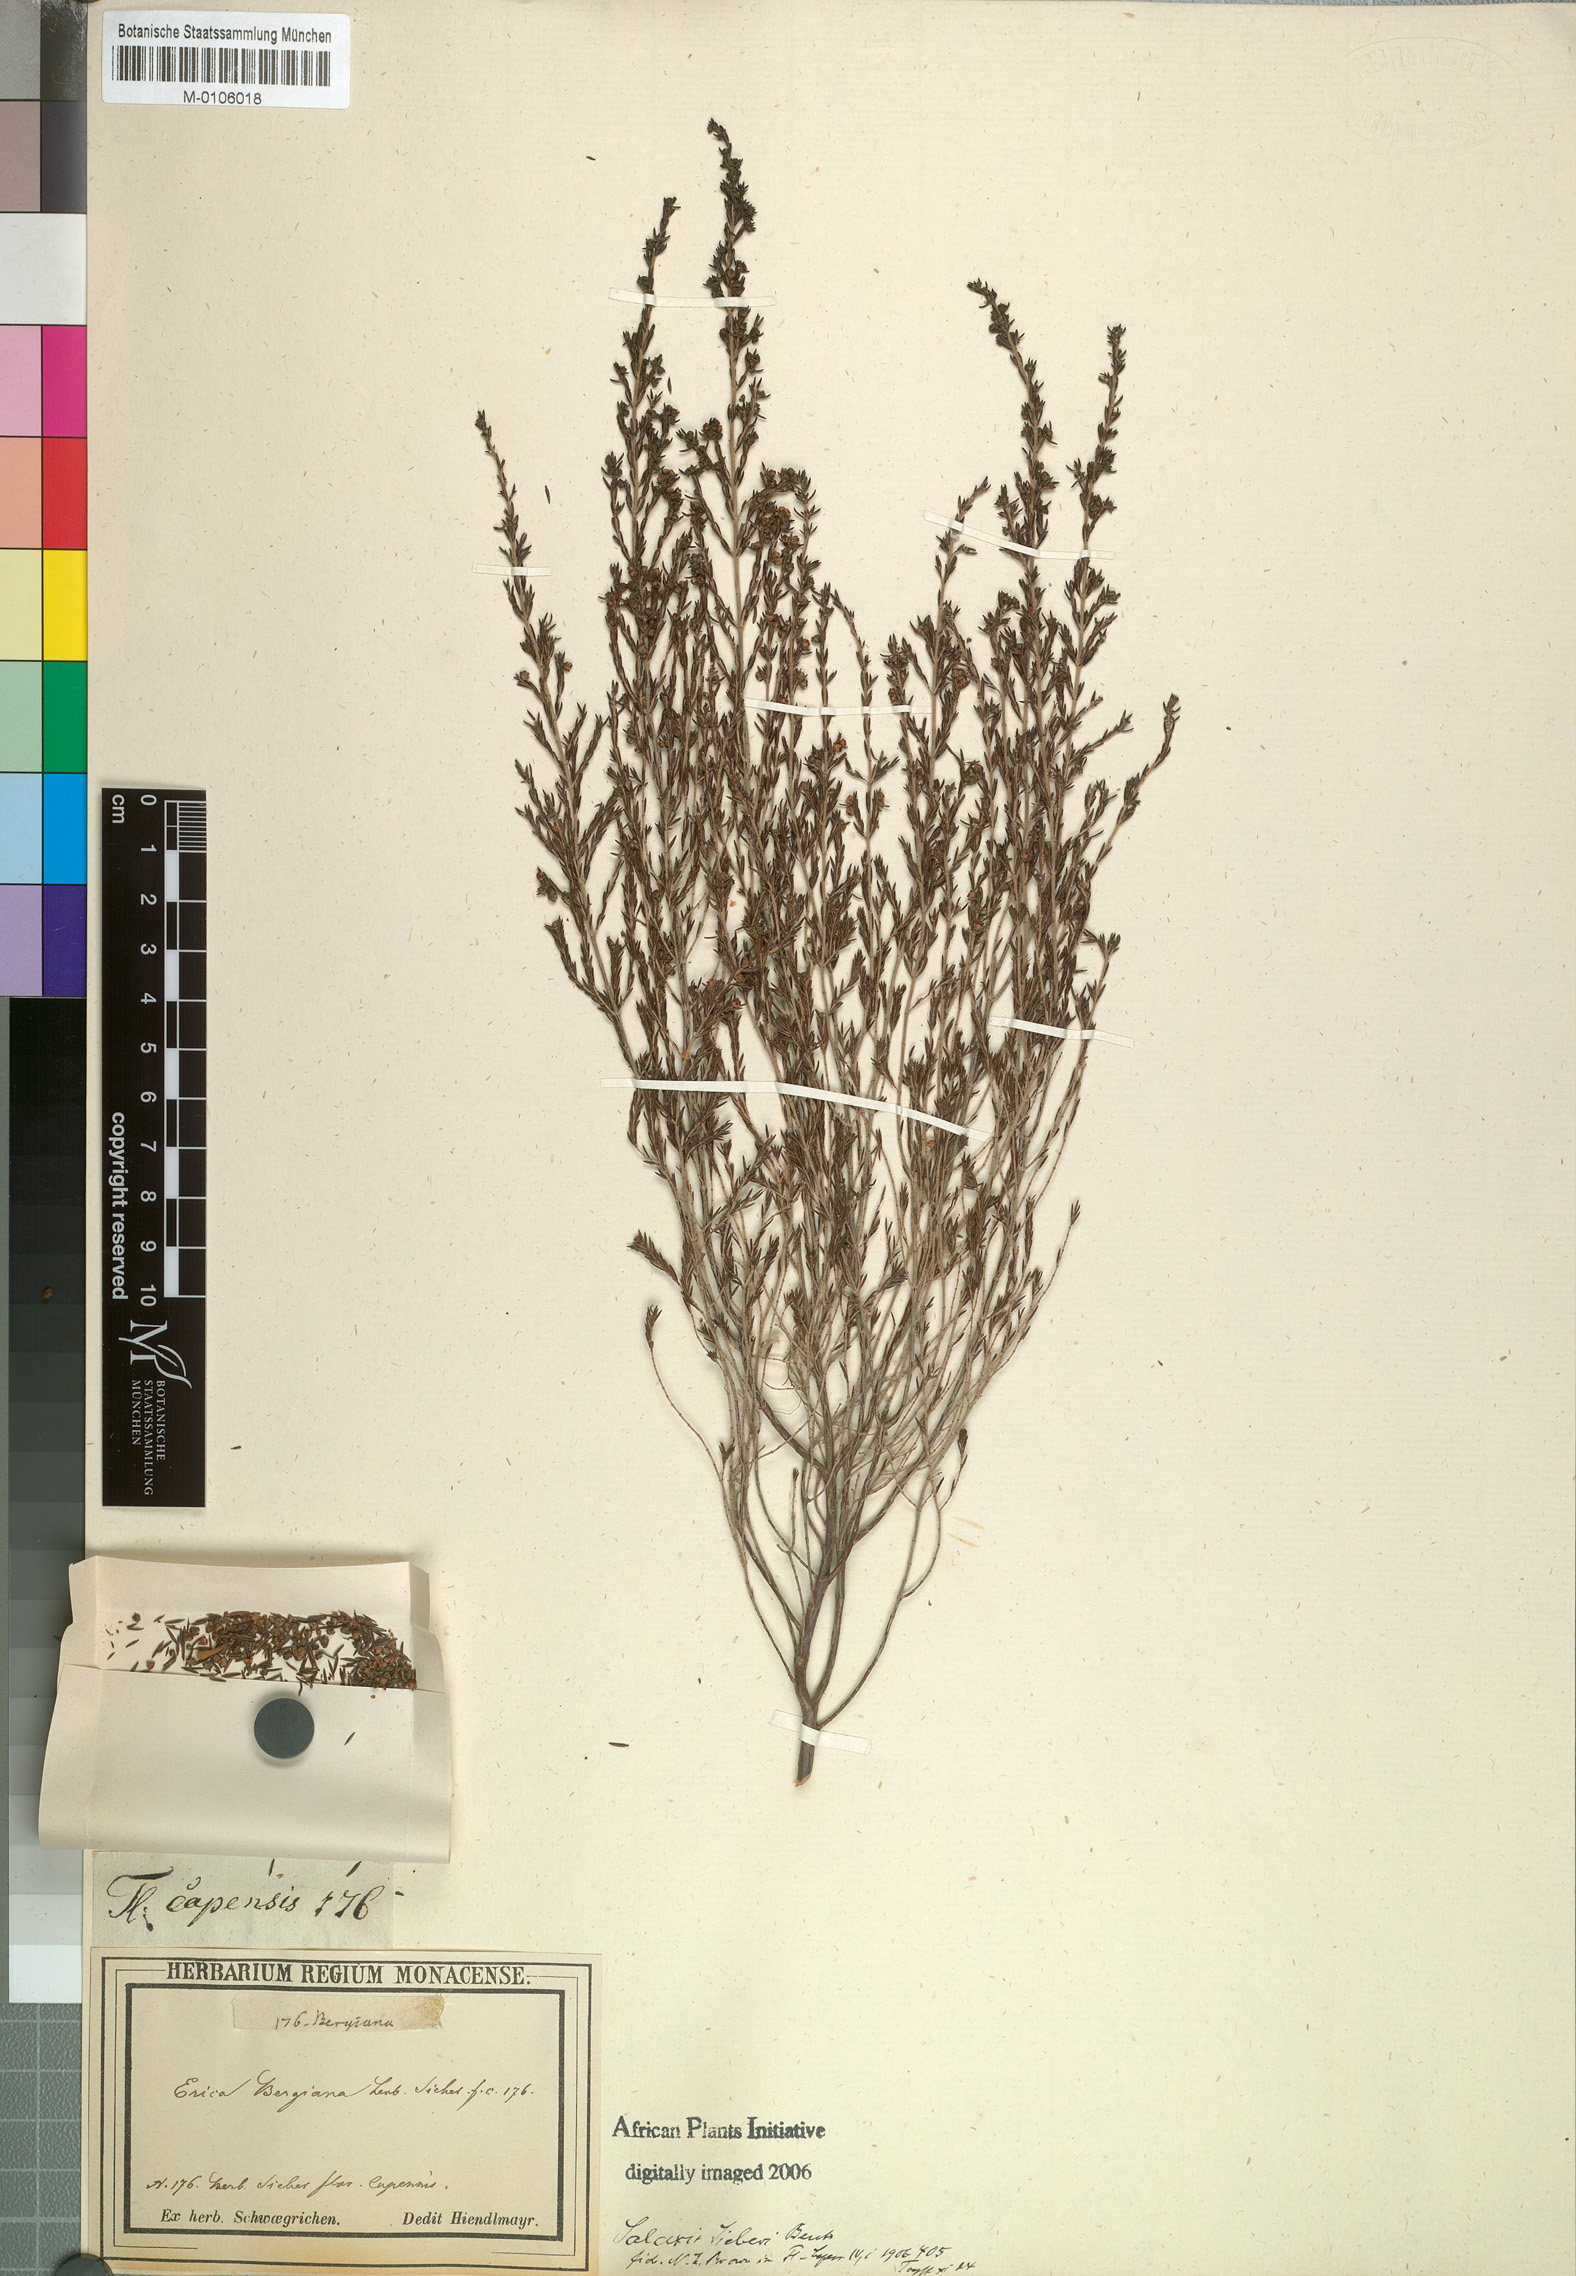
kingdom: Plantae
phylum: Tracheophyta
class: Magnoliopsida
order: Ericales
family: Ericaceae
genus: Erica
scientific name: Erica axillaris
